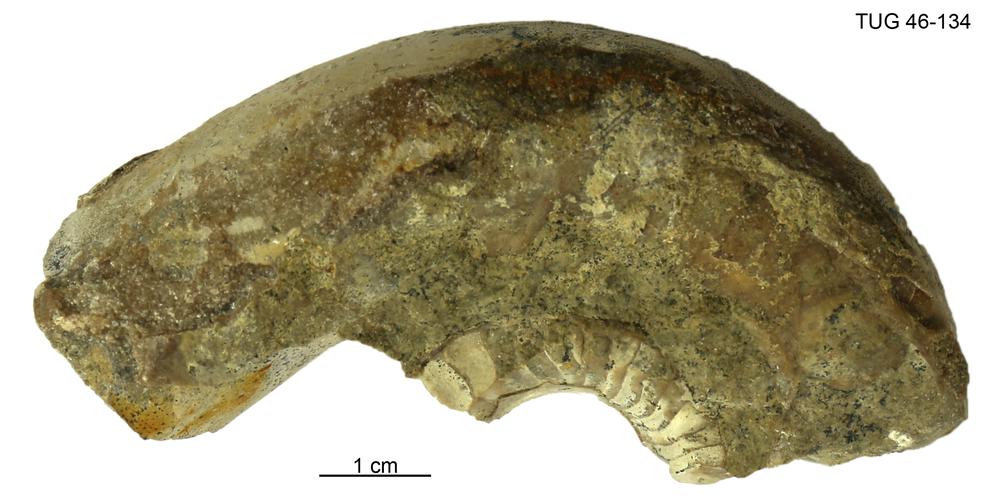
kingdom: Animalia
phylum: Mollusca
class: Cephalopoda
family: Estonioceratidae
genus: Estonioceras
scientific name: Estonioceras
